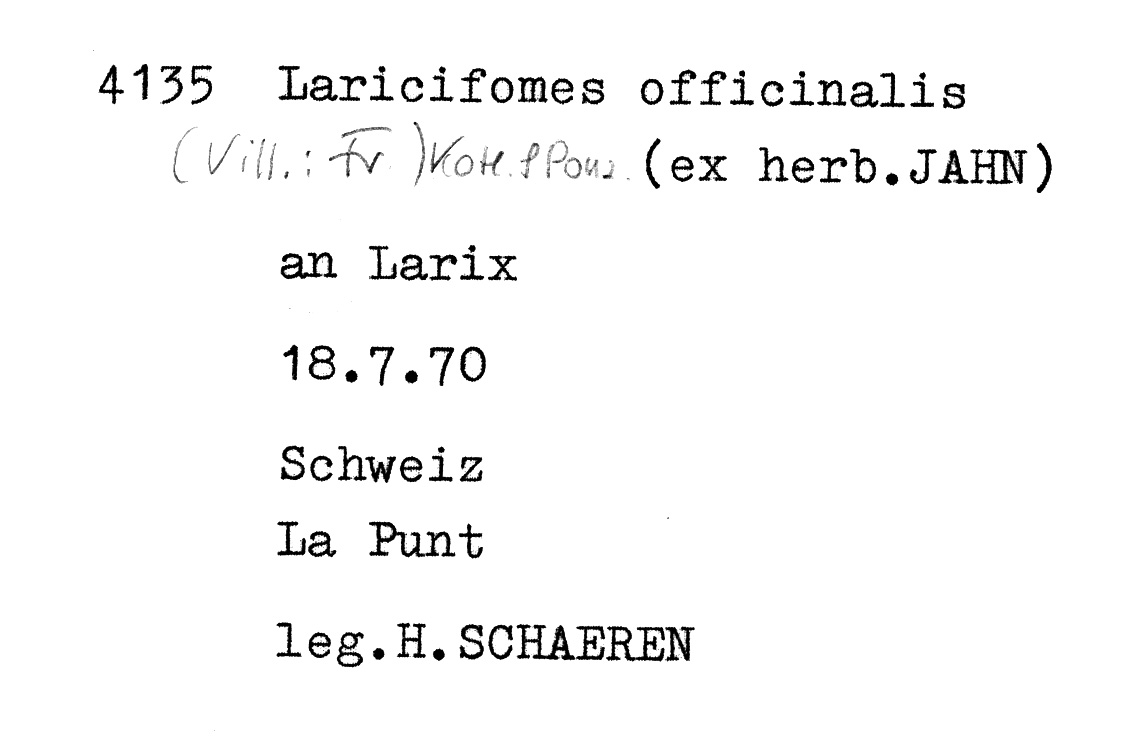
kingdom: Plantae
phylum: Tracheophyta
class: Pinopsida
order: Pinales
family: Pinaceae
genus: Larix
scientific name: Larix
